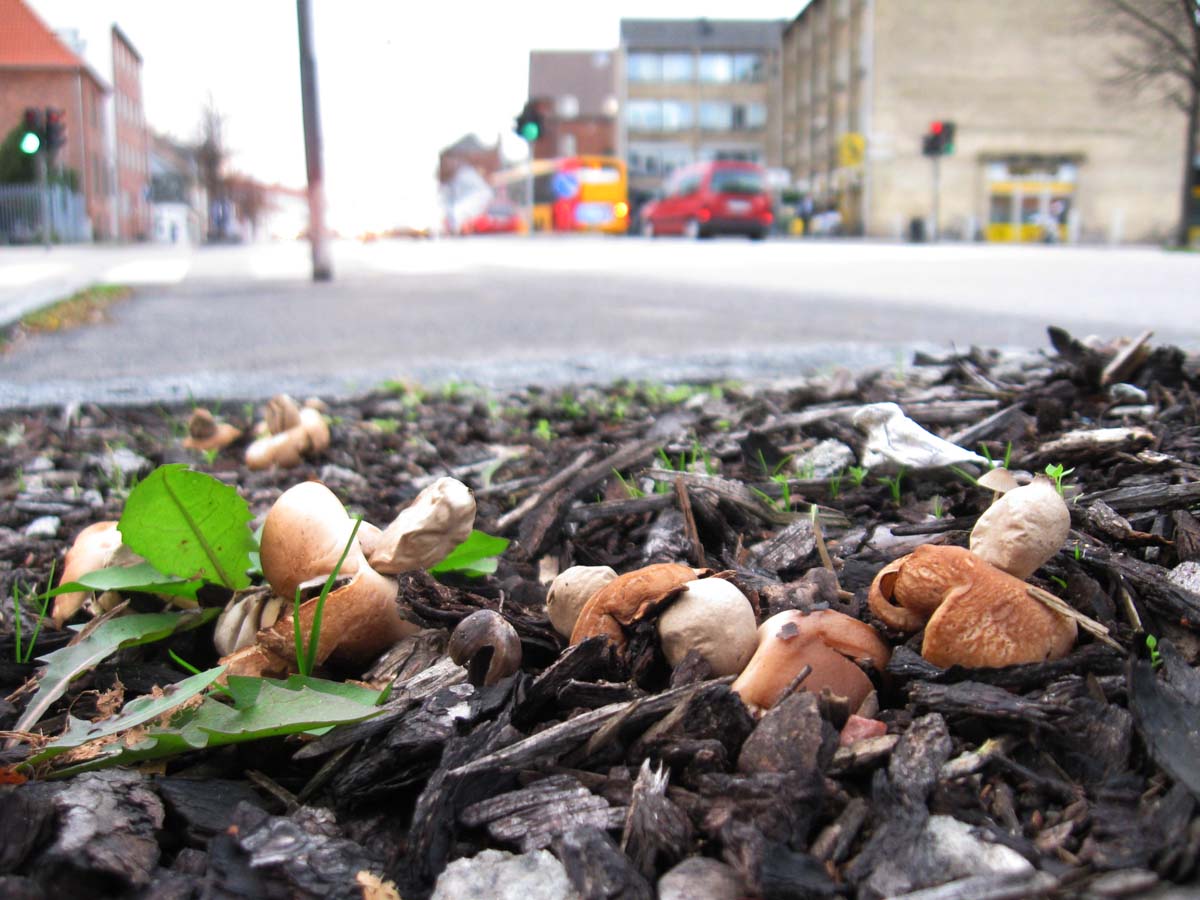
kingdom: Fungi
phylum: Basidiomycota
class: Agaricomycetes
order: Geastrales
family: Geastraceae
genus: Geastrum
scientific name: Geastrum fimbriatum
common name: frynset stjernebold
